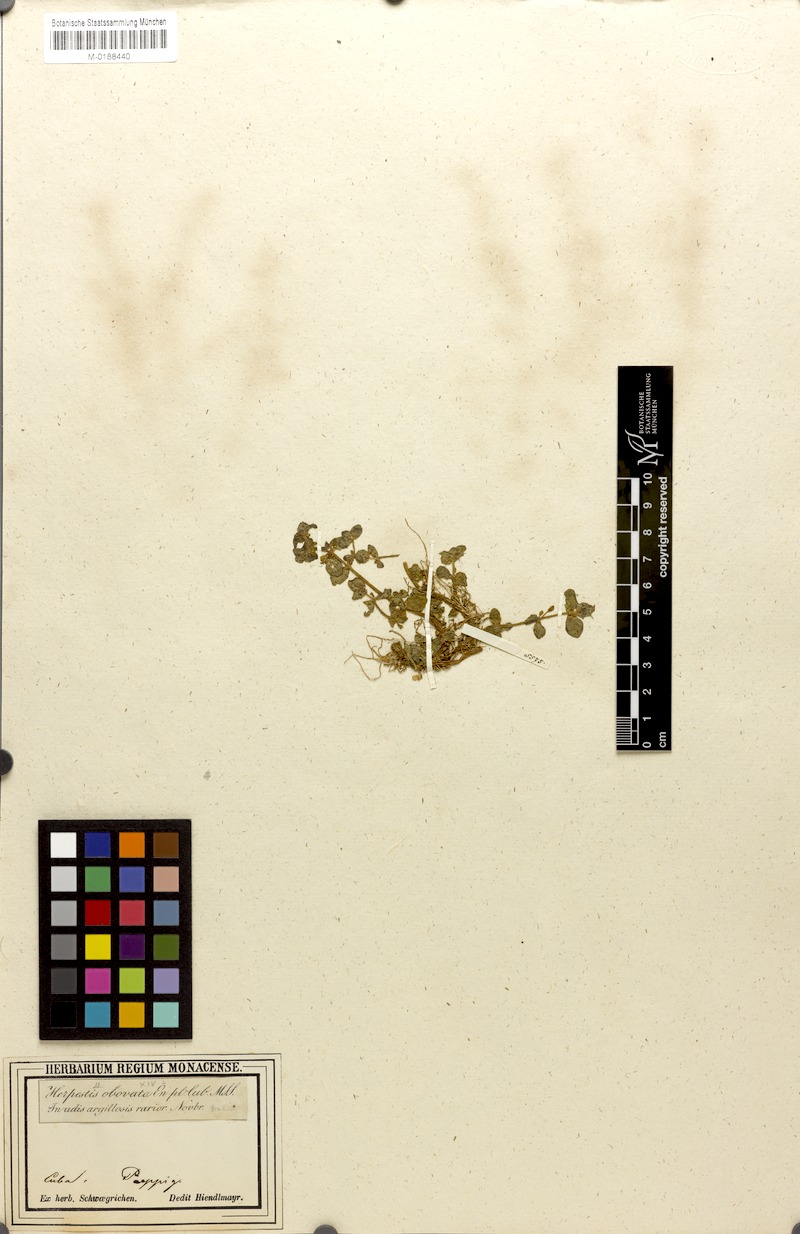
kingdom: Plantae
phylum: Tracheophyta
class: Magnoliopsida
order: Lamiales
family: Plantaginaceae
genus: Bacopa
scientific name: Bacopa rotundifolia
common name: Disc water hyssop
